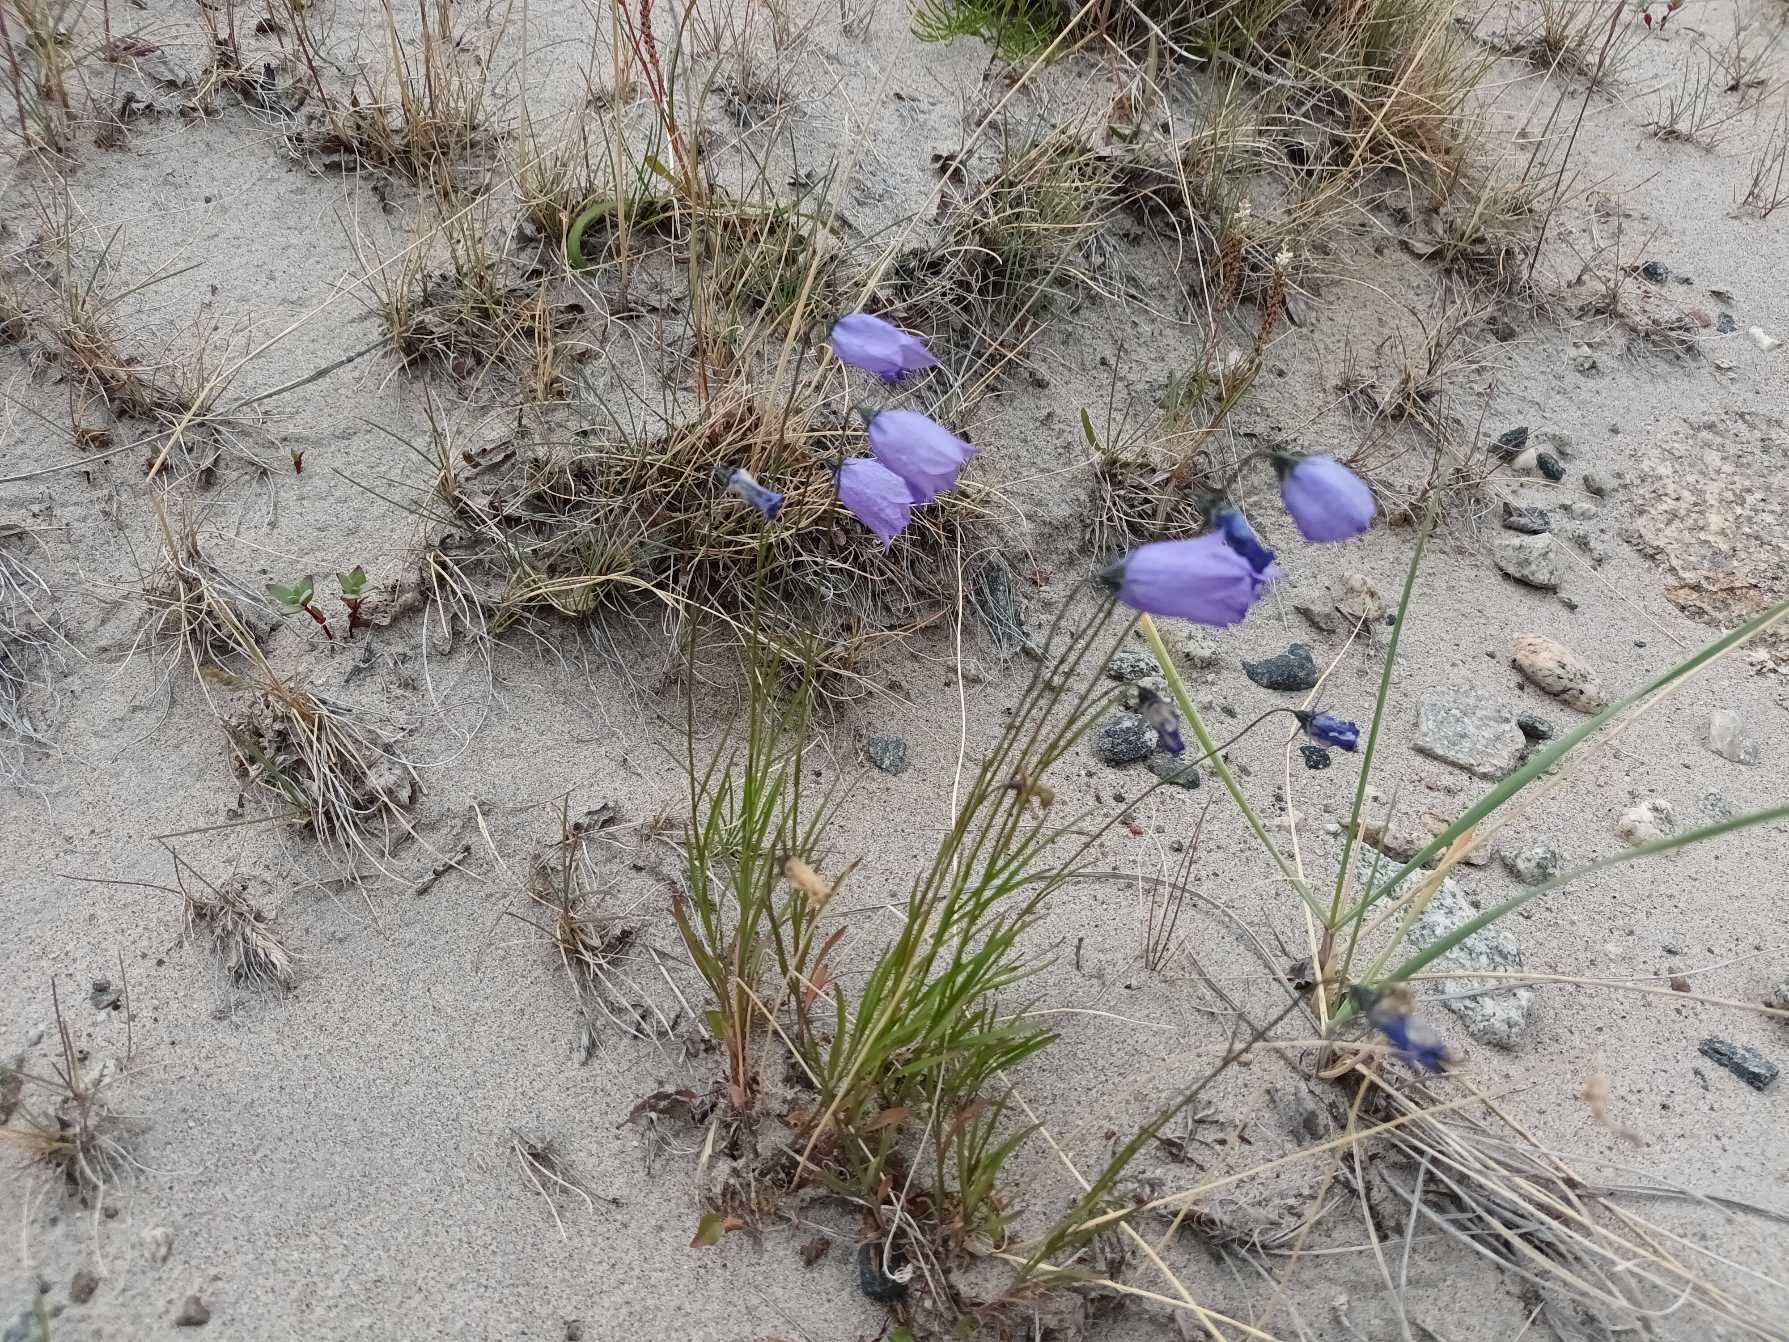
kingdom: Plantae
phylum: Tracheophyta
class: Magnoliopsida
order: Asterales
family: Campanulaceae
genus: Campanula
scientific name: Campanula rotundifolia
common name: Liden klokke
